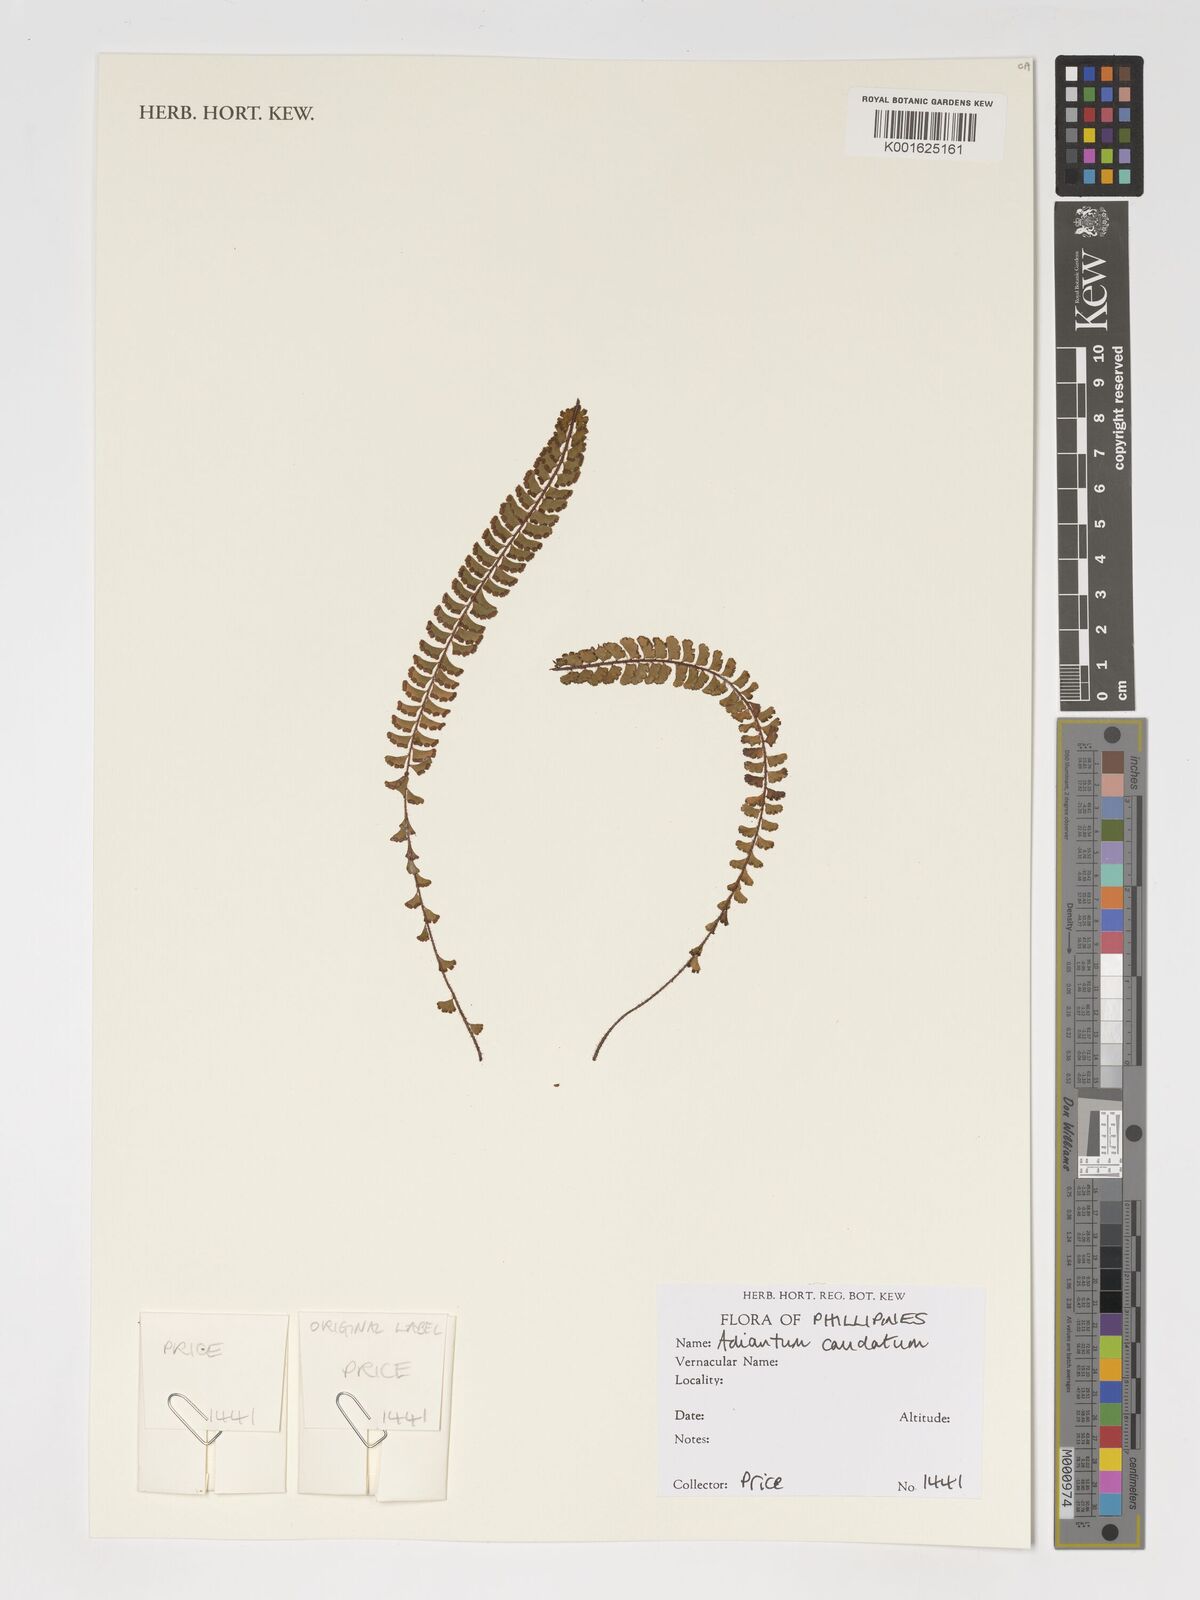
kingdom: Plantae
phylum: Tracheophyta
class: Polypodiopsida
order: Polypodiales
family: Pteridaceae
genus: Adiantum
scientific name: Adiantum caudatum
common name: Tailed maidenhair
